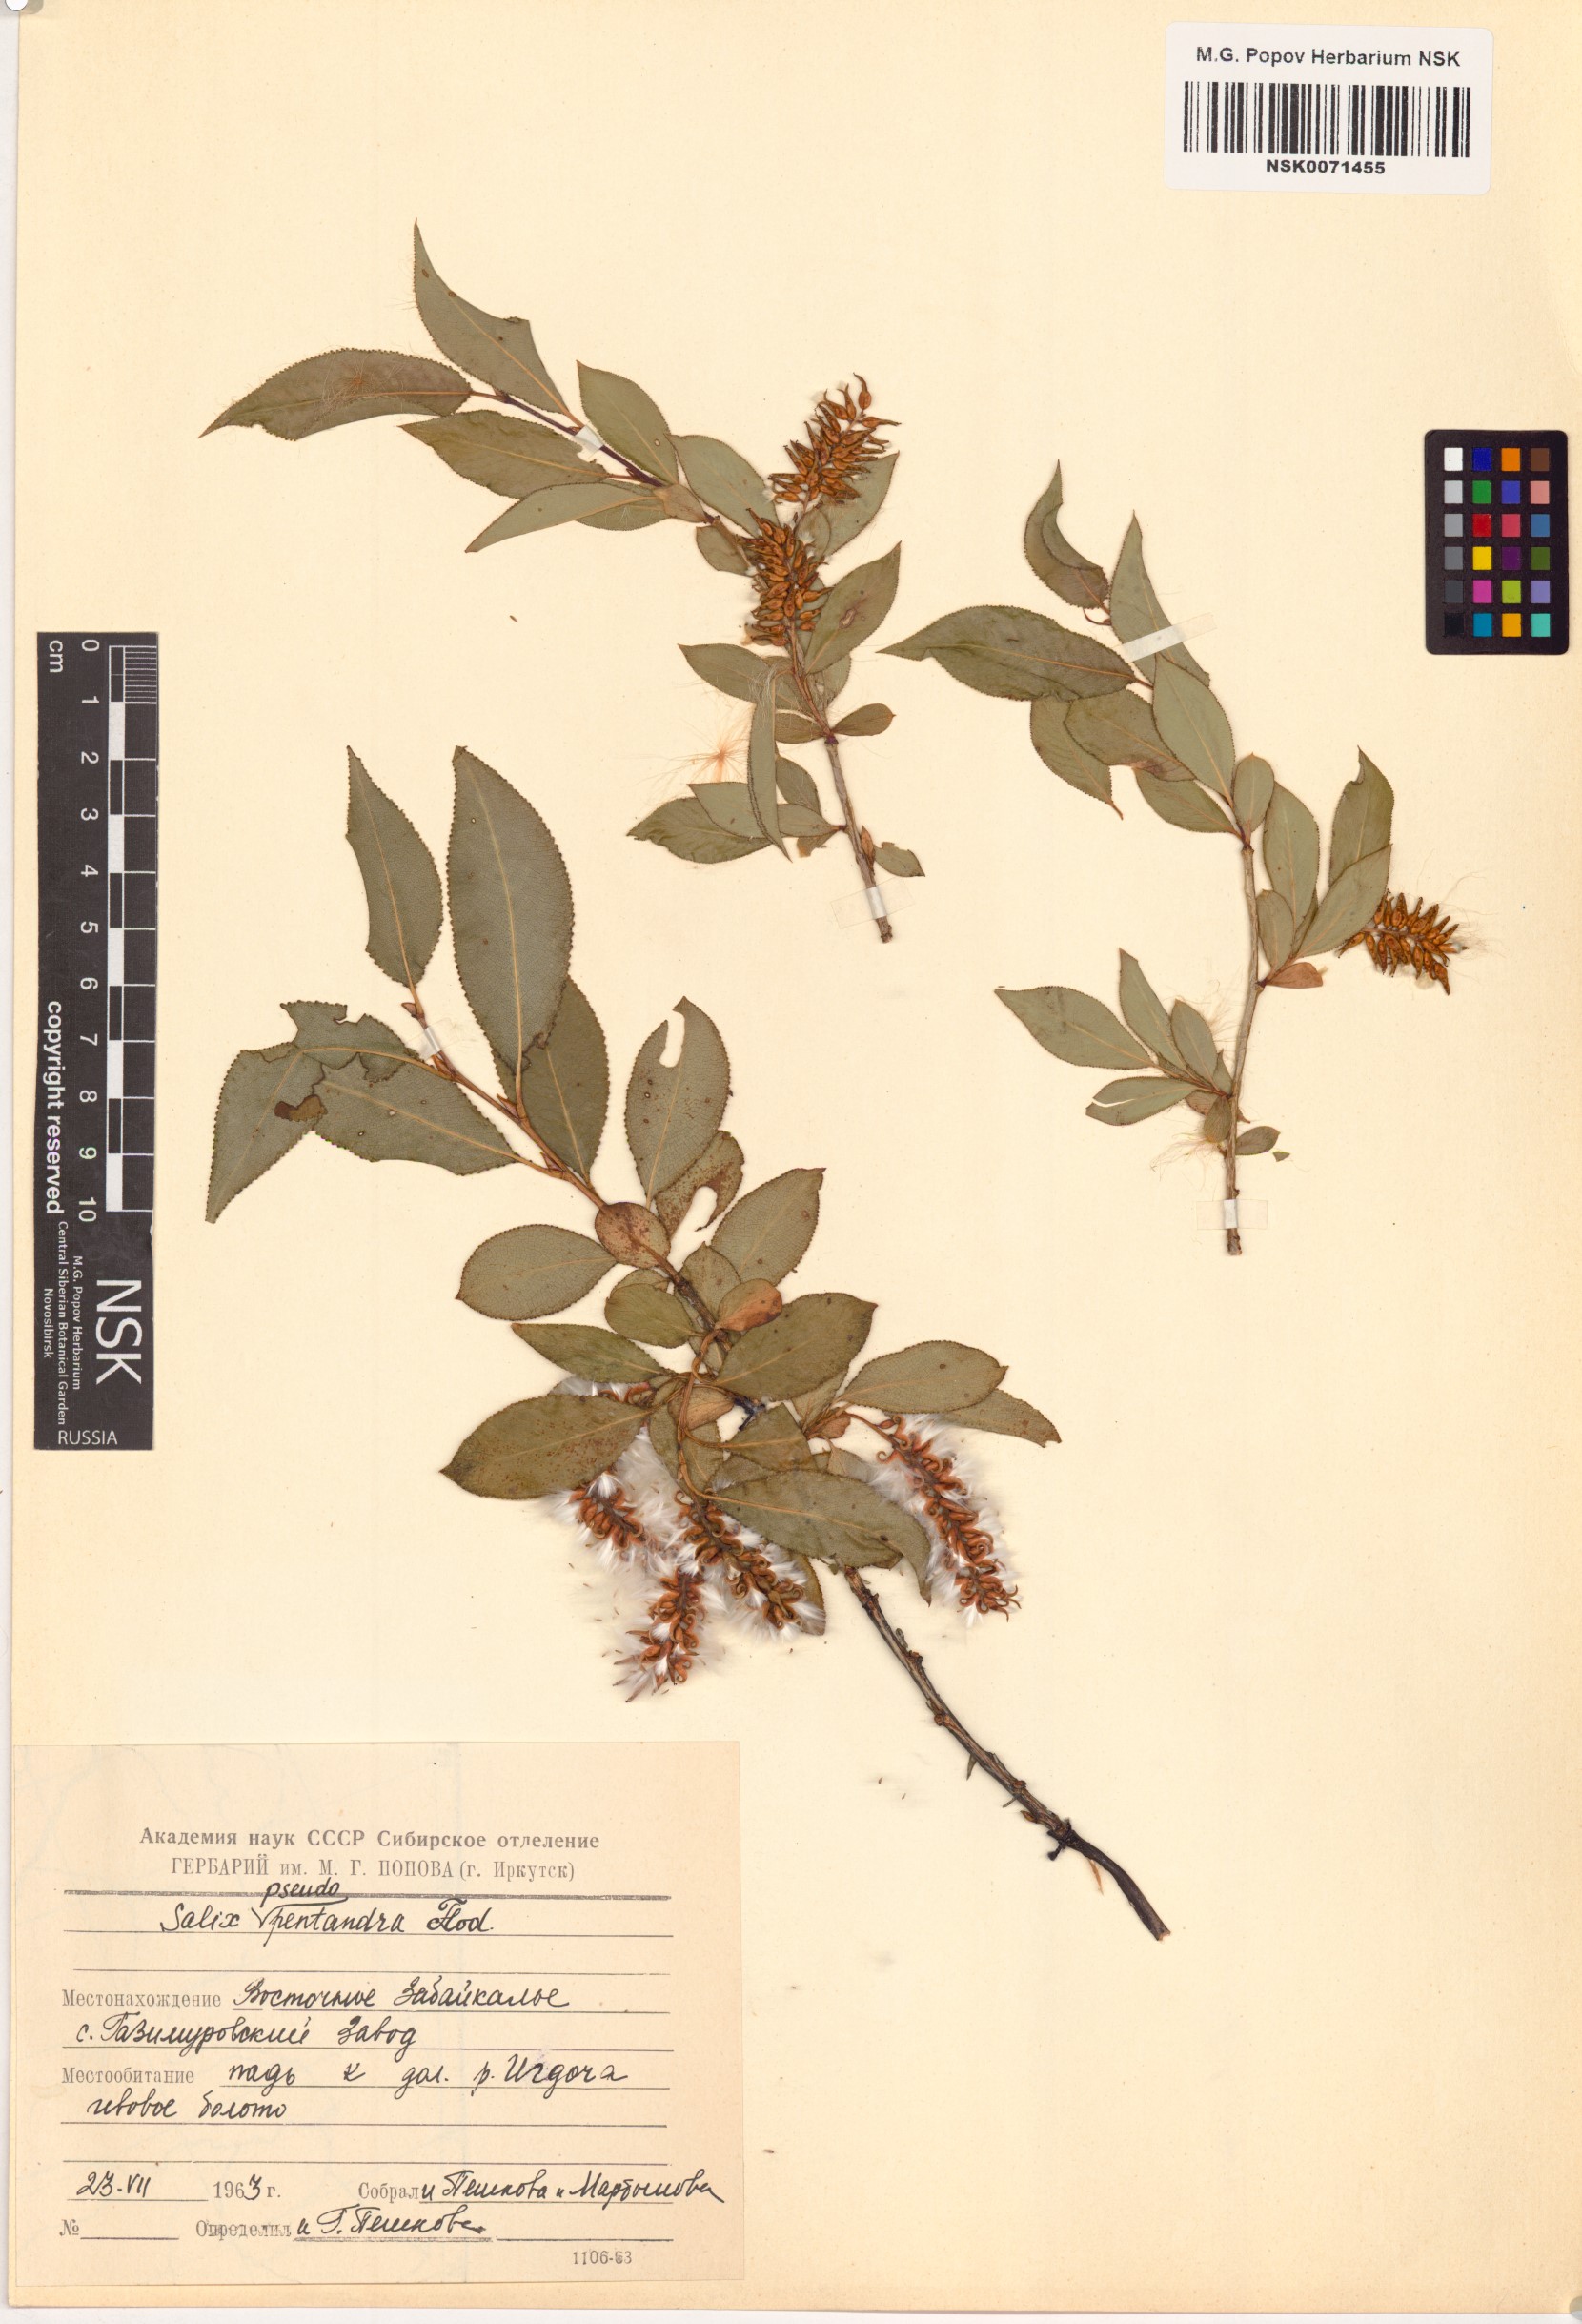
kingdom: Plantae
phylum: Tracheophyta
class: Magnoliopsida
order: Malpighiales
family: Salicaceae
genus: Salix
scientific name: Salix pseudopentandra
